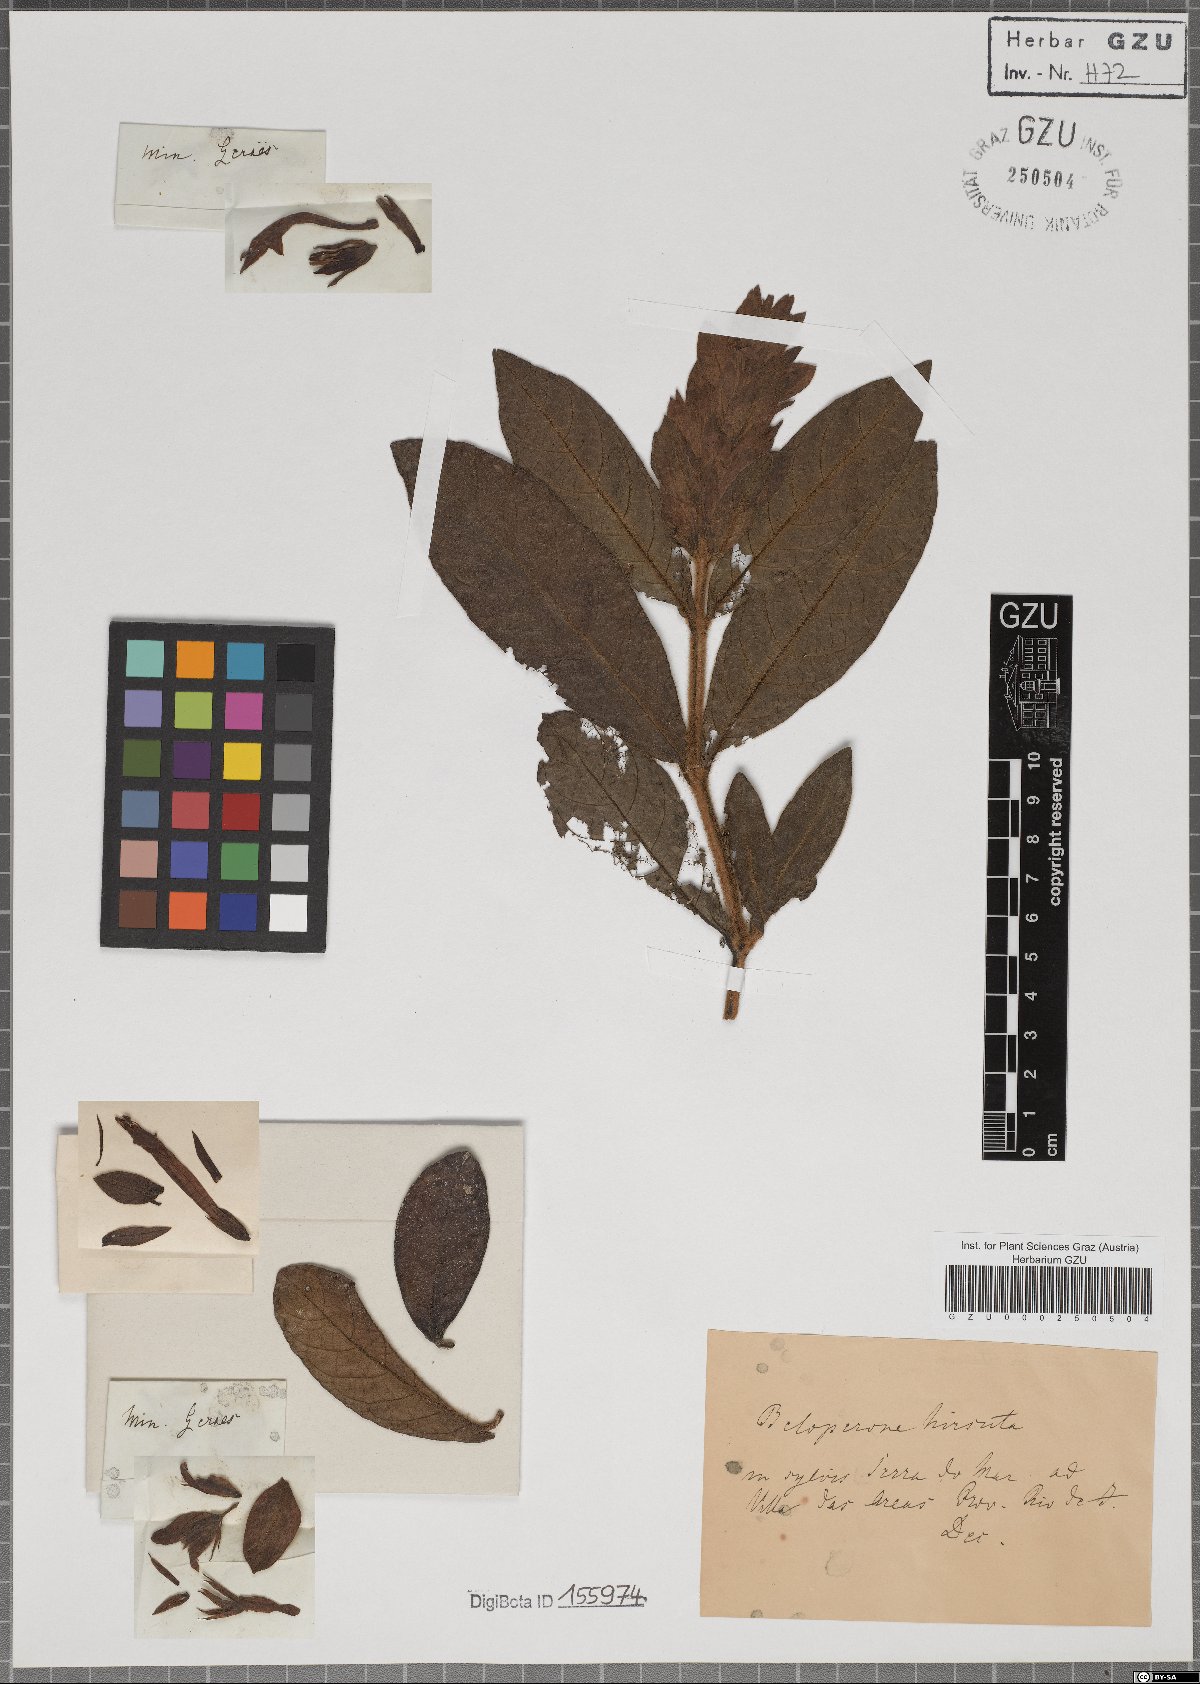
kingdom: Plantae
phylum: Tracheophyta
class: Magnoliopsida
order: Lamiales
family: Acanthaceae
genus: Justicia
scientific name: Justicia pohliana
